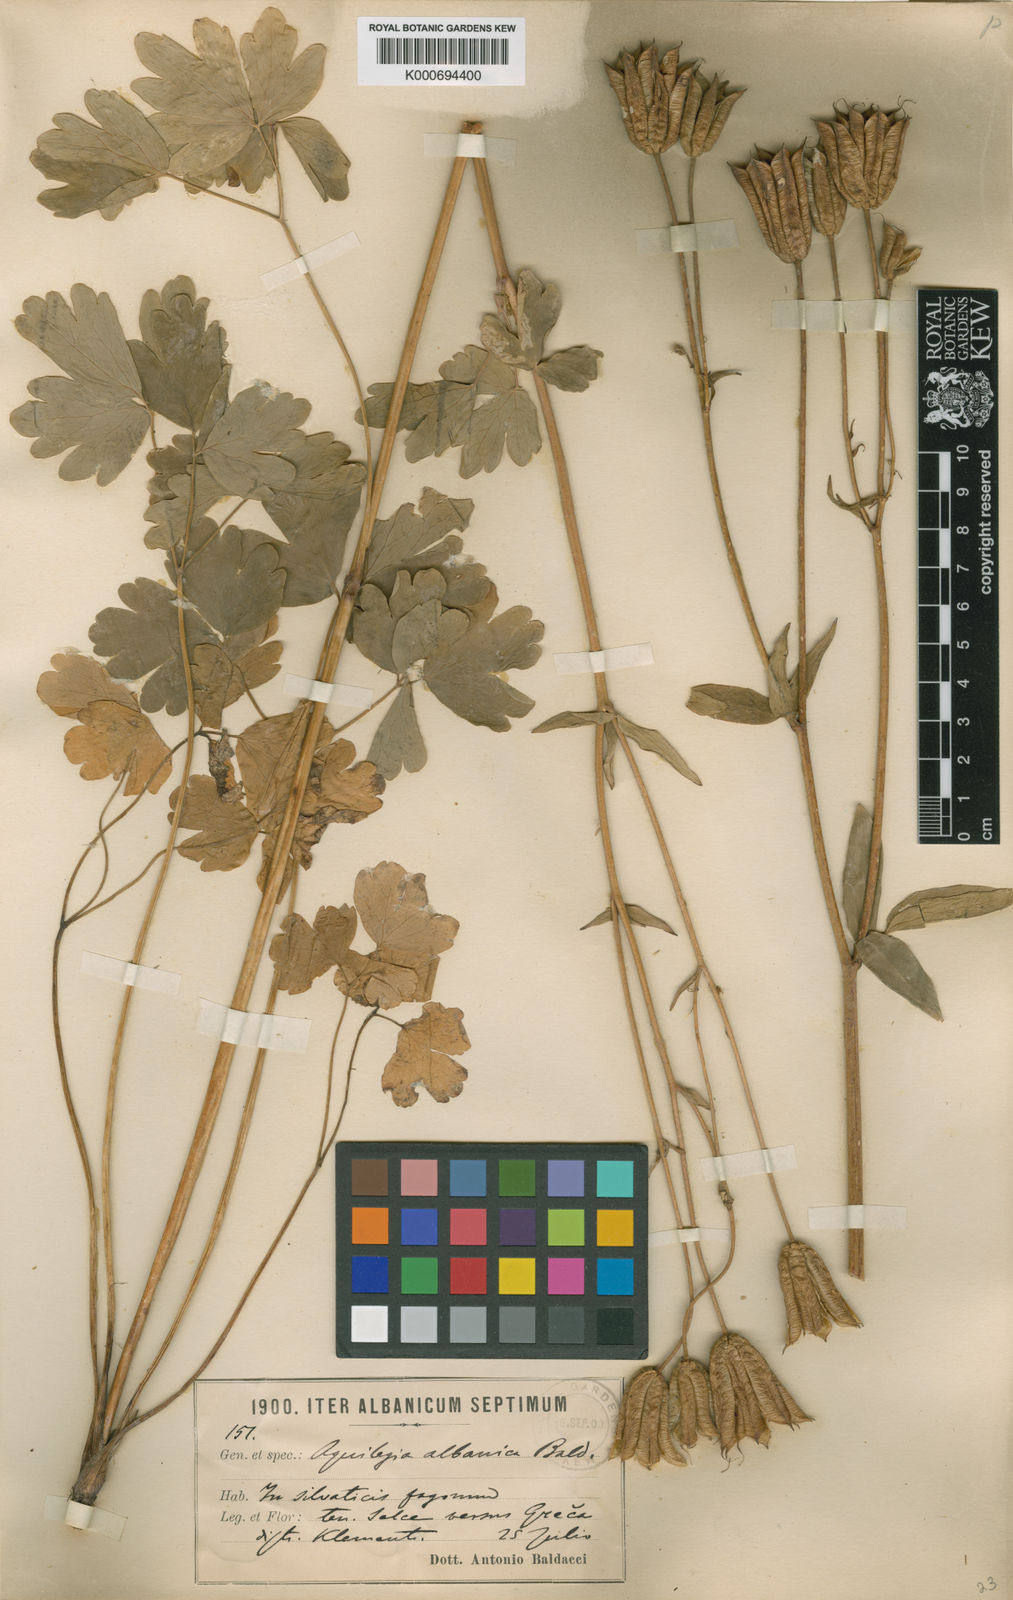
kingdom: Plantae
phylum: Tracheophyta
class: Magnoliopsida
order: Ranunculales
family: Ranunculaceae
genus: Aquilegia
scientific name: Aquilegia vulgaris
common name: Columbine
